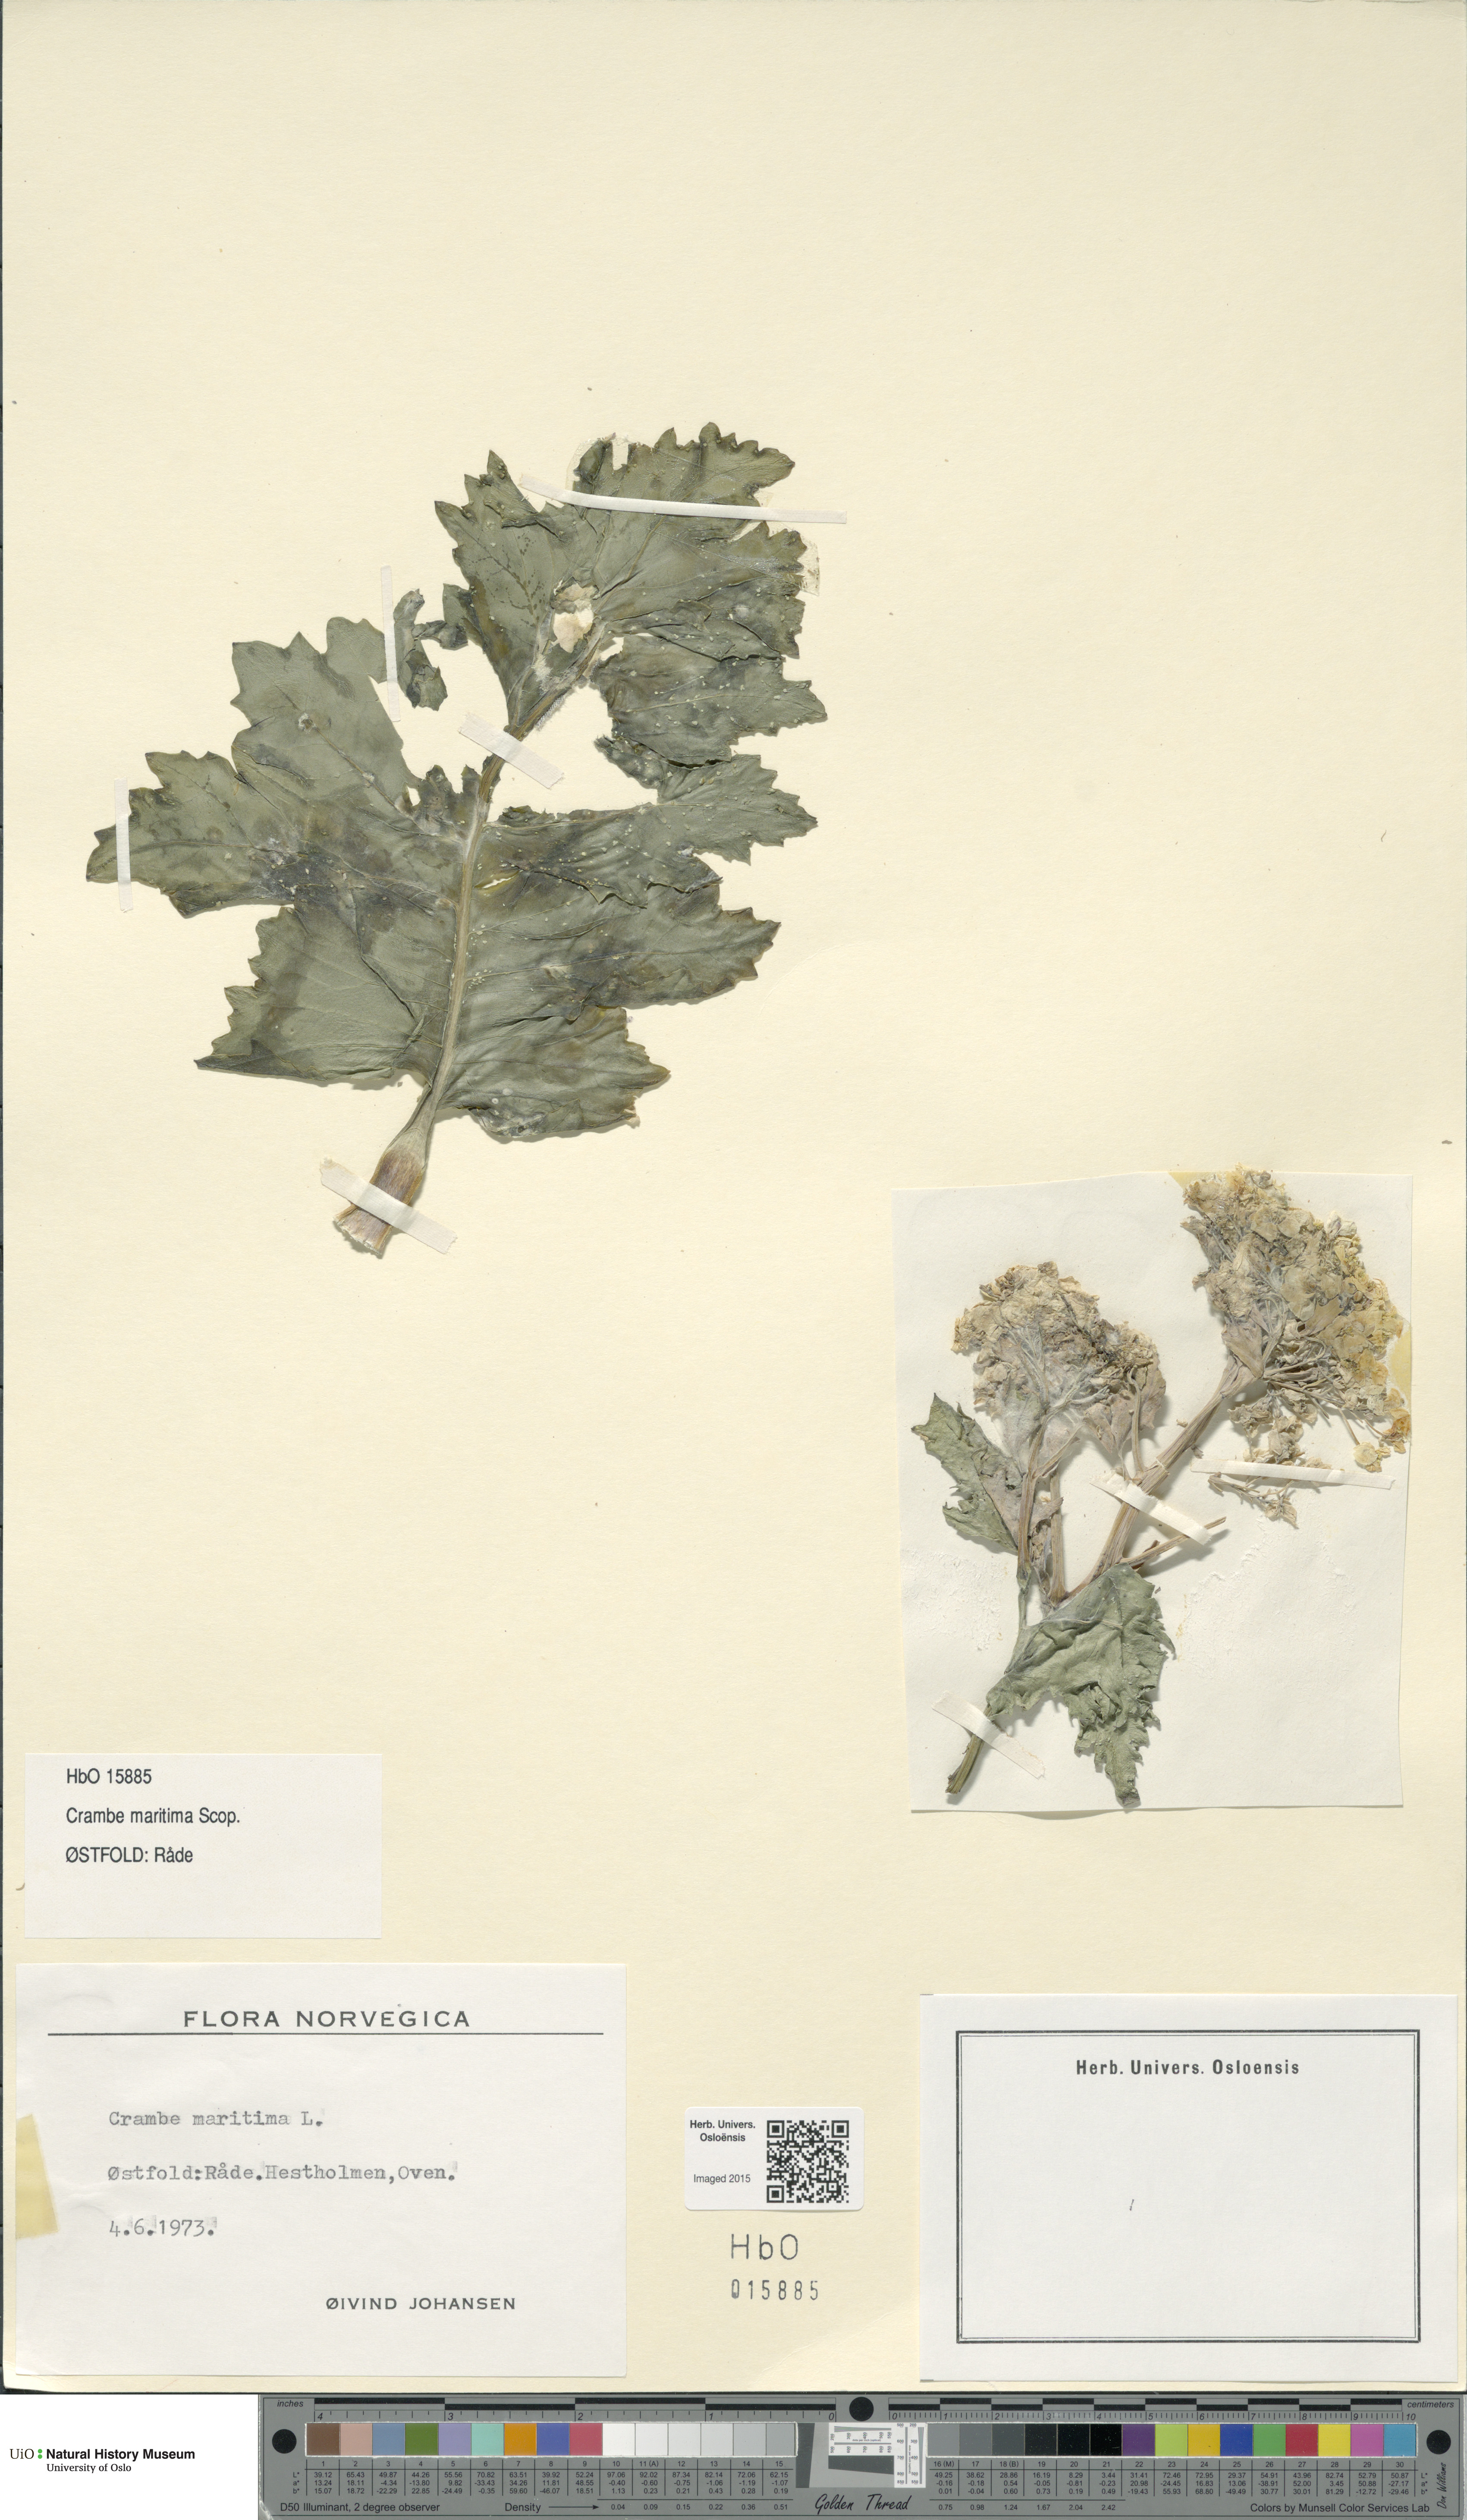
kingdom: Plantae
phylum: Tracheophyta
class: Magnoliopsida
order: Brassicales
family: Brassicaceae
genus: Crambe
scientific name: Crambe maritima
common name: Sea-kale
